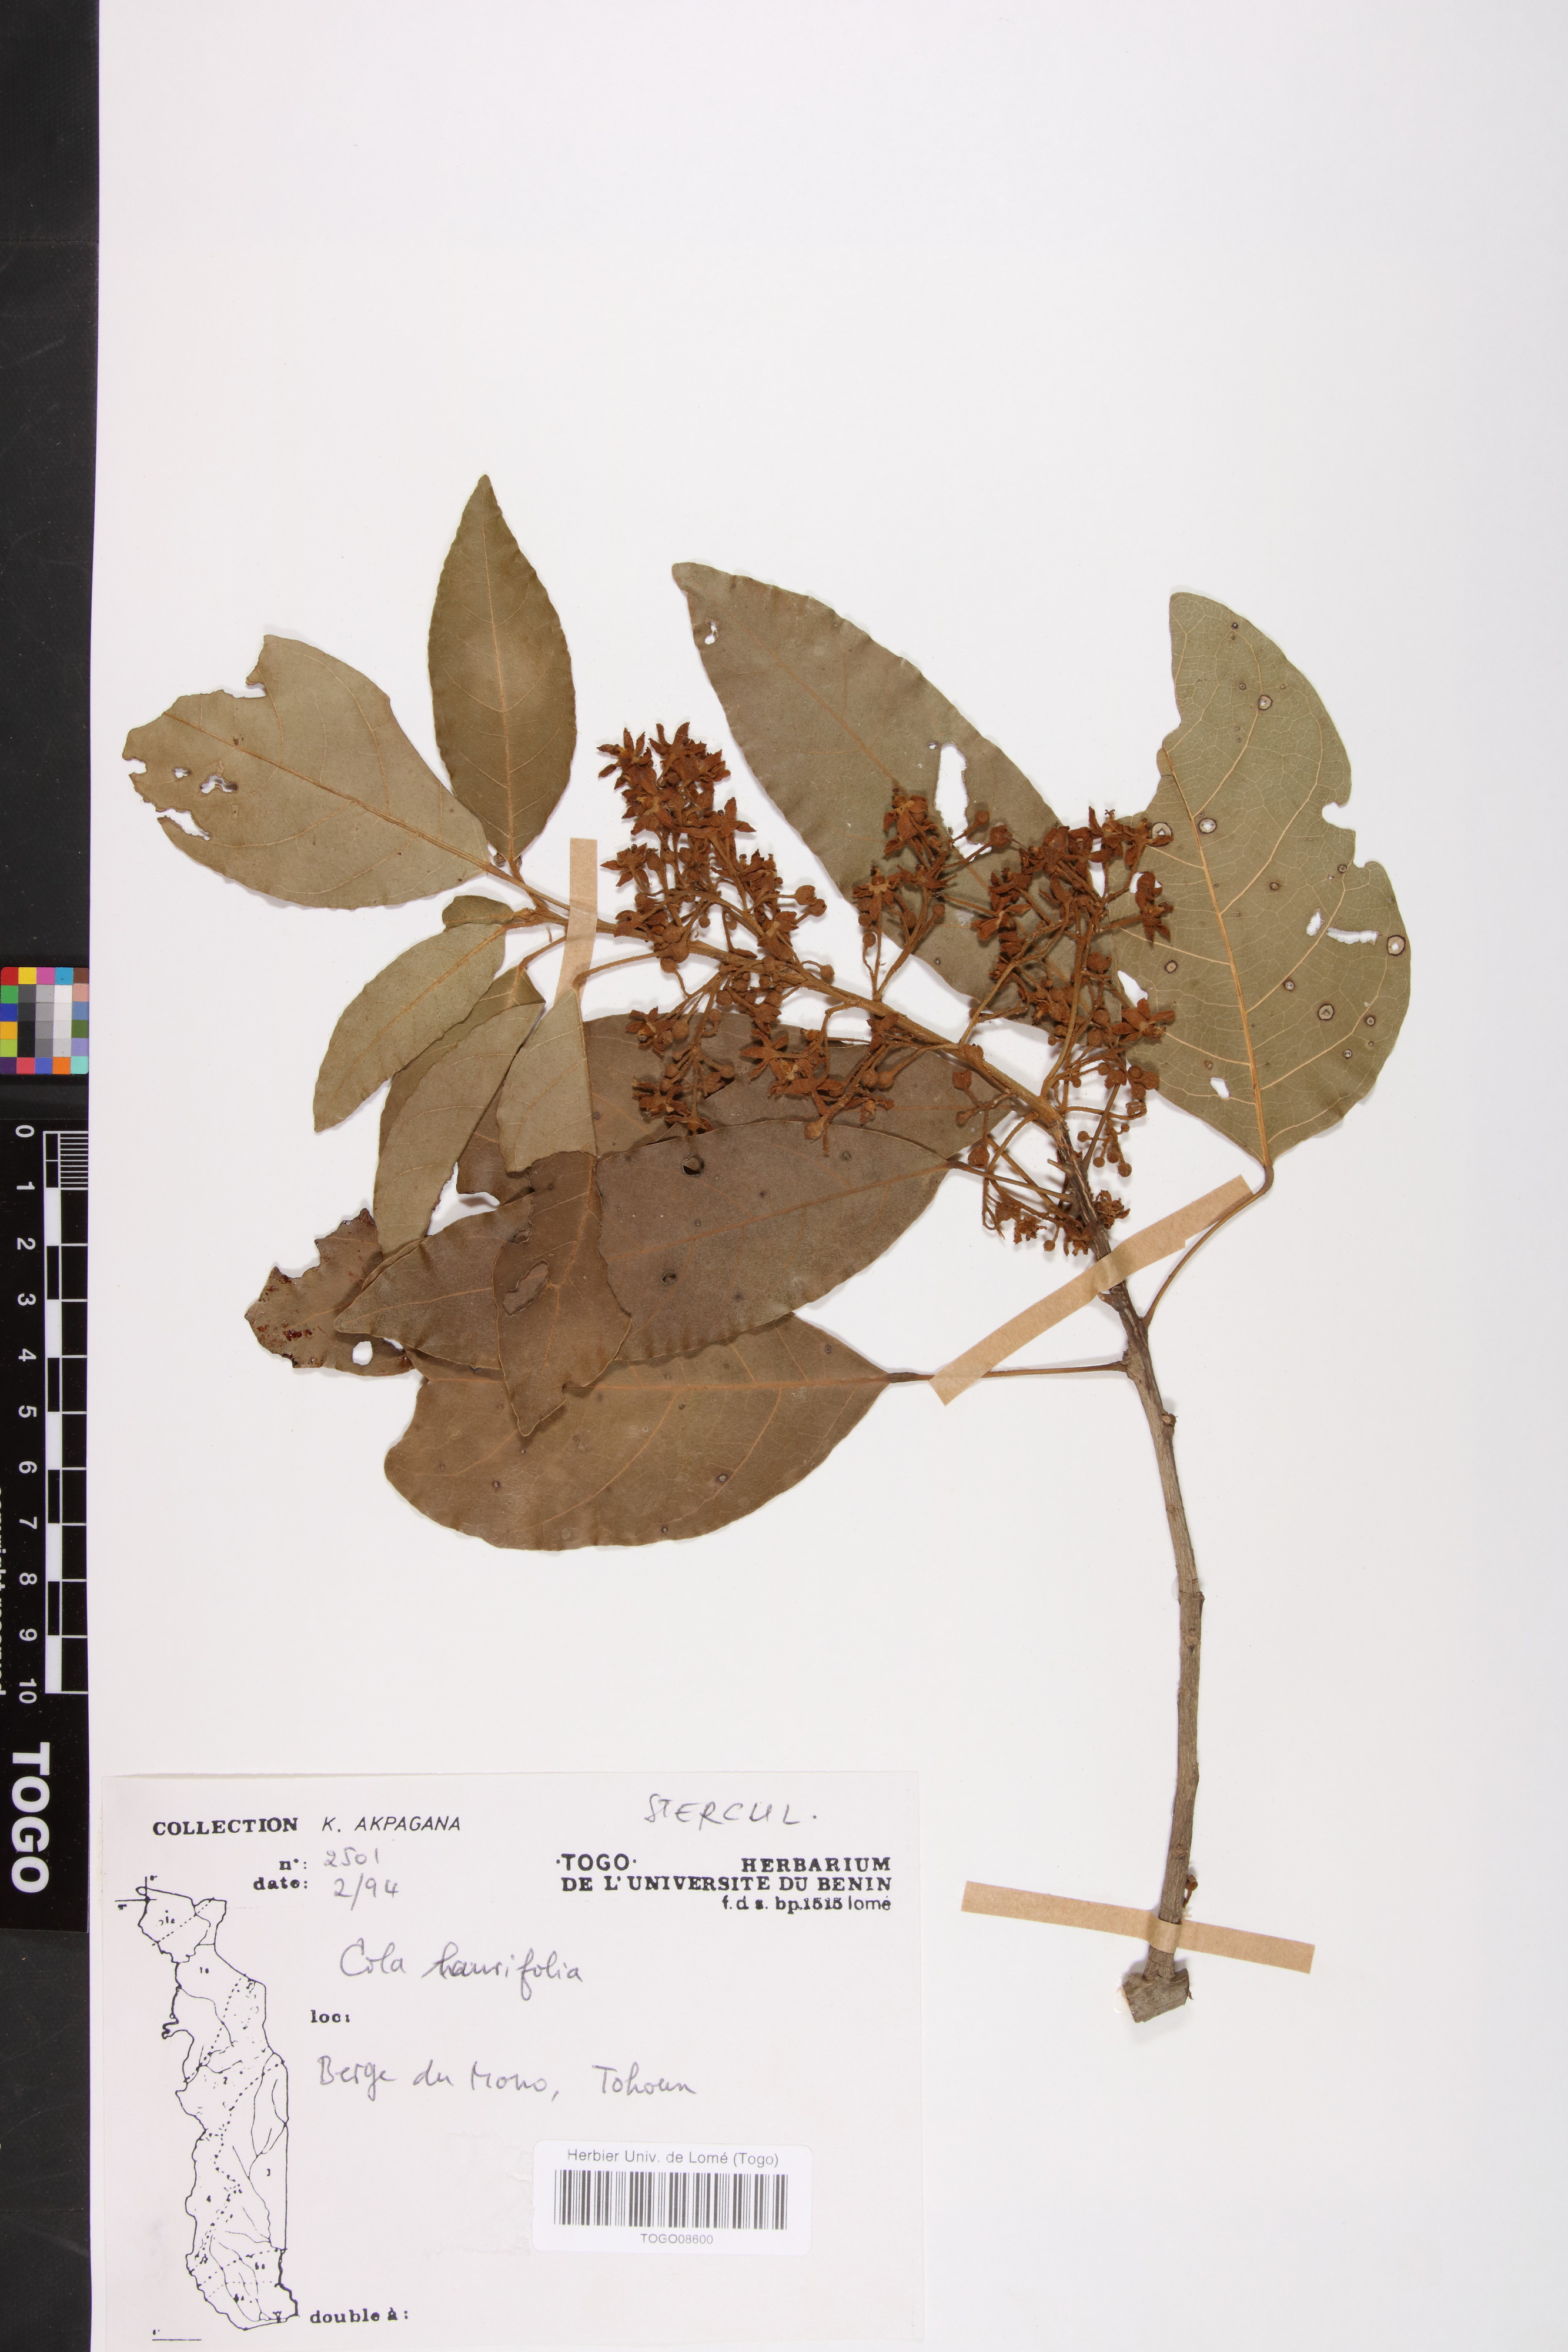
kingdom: Plantae
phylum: Tracheophyta
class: Magnoliopsida
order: Malvales
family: Malvaceae
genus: Cola
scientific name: Cola laurifolia
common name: Laurel-leaved kola
